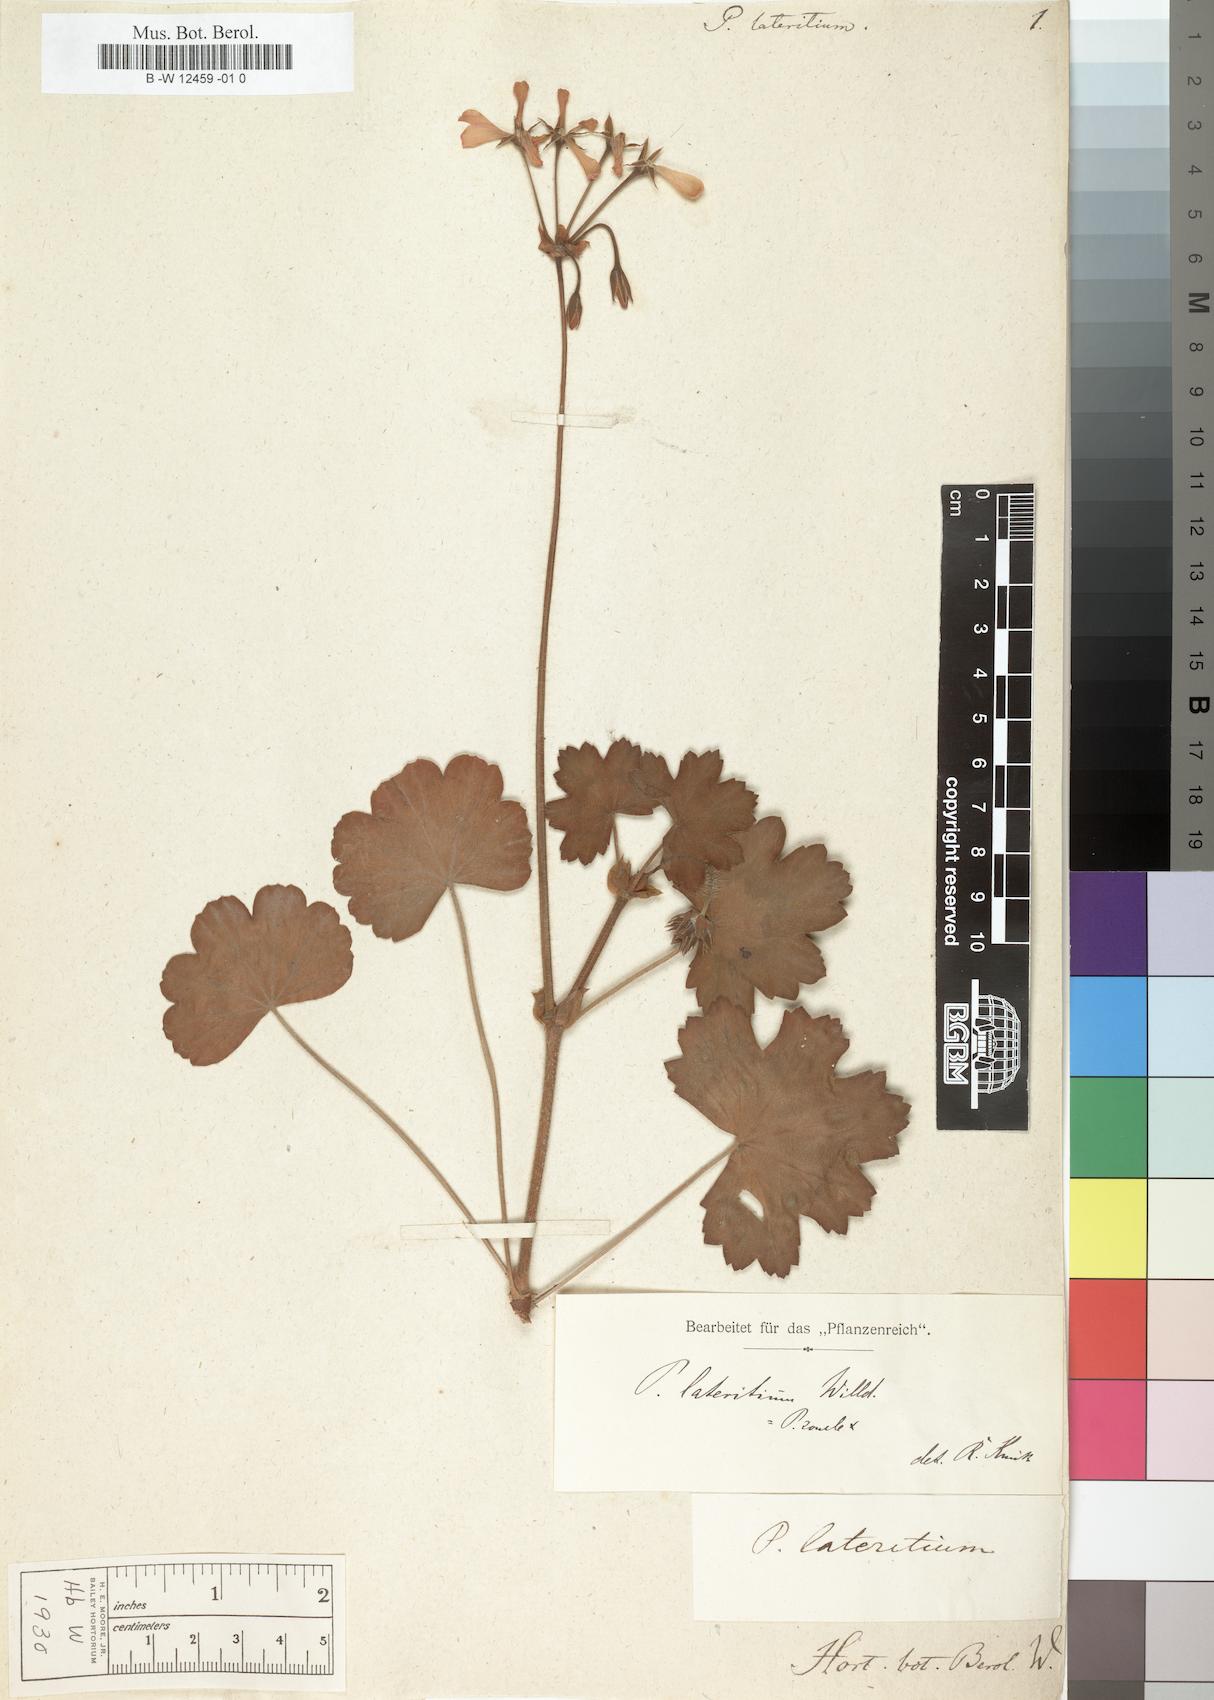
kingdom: Plantae
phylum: Tracheophyta
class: Magnoliopsida
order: Geraniales
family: Geraniaceae
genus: Pelargonium
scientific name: Pelargonium alchemilloides
